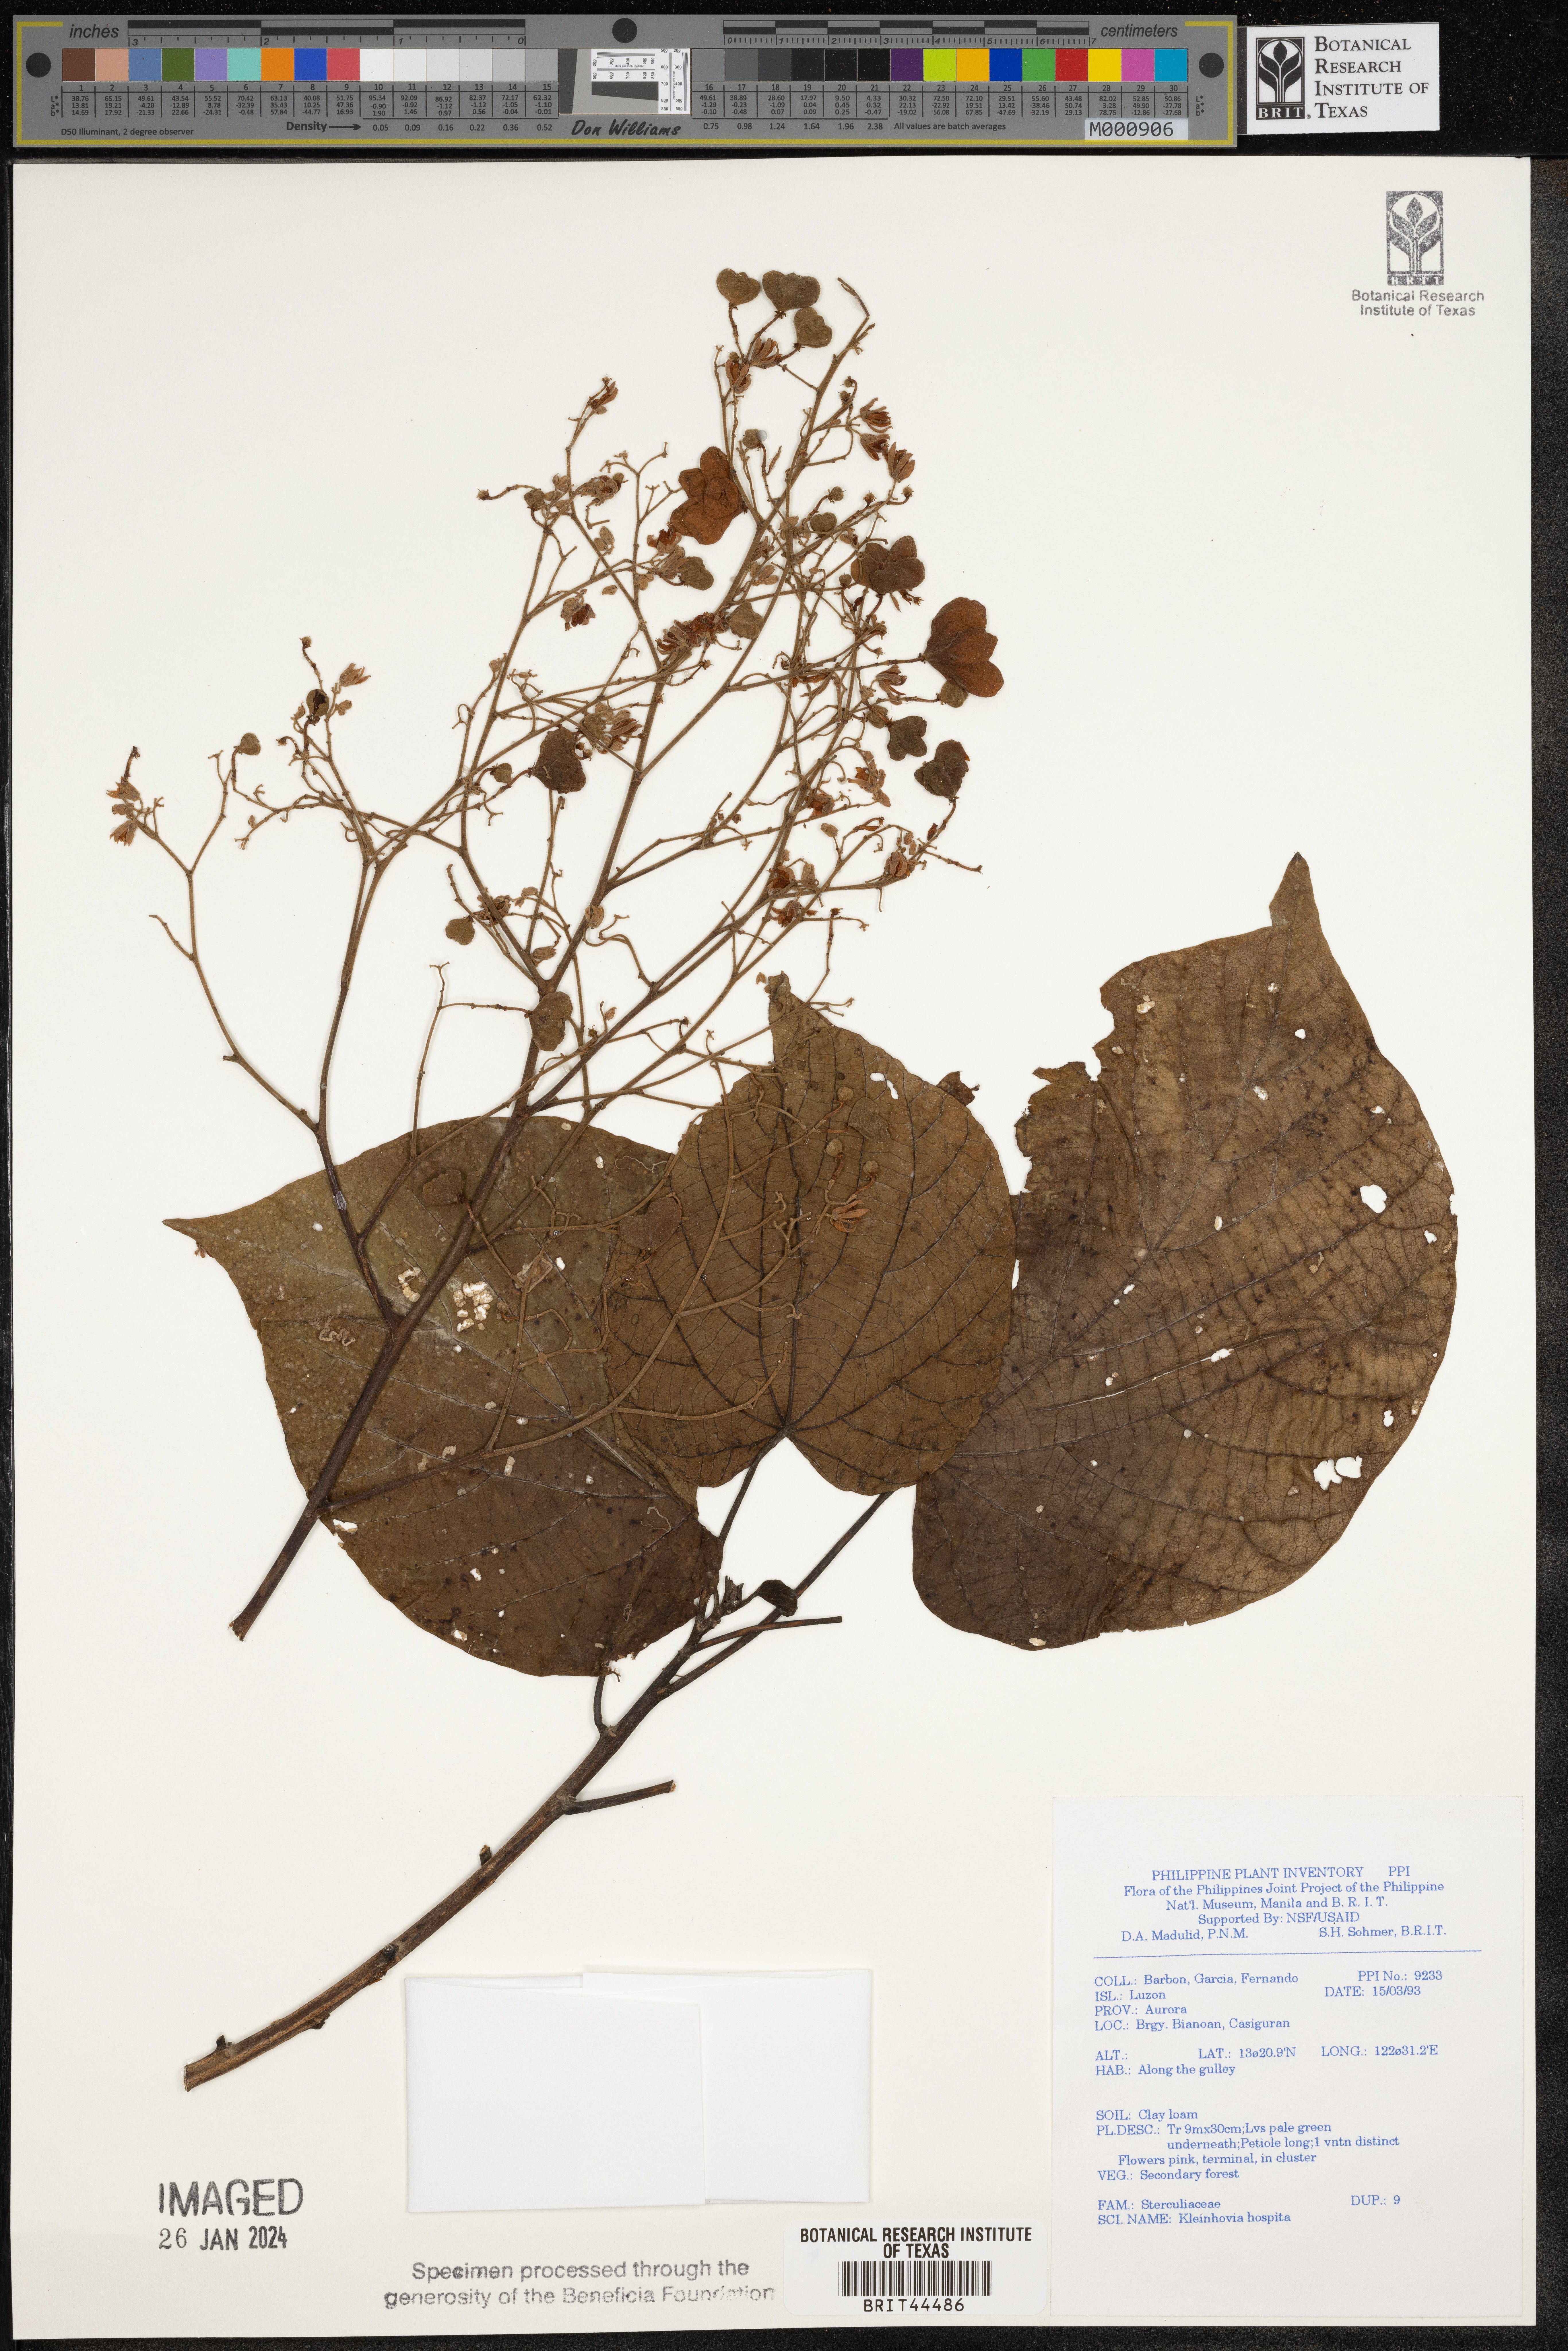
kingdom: Plantae
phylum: Tracheophyta
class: Magnoliopsida
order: Malvales
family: Malvaceae
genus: Kleinhovia
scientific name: Kleinhovia hospita
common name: Guest-tree
